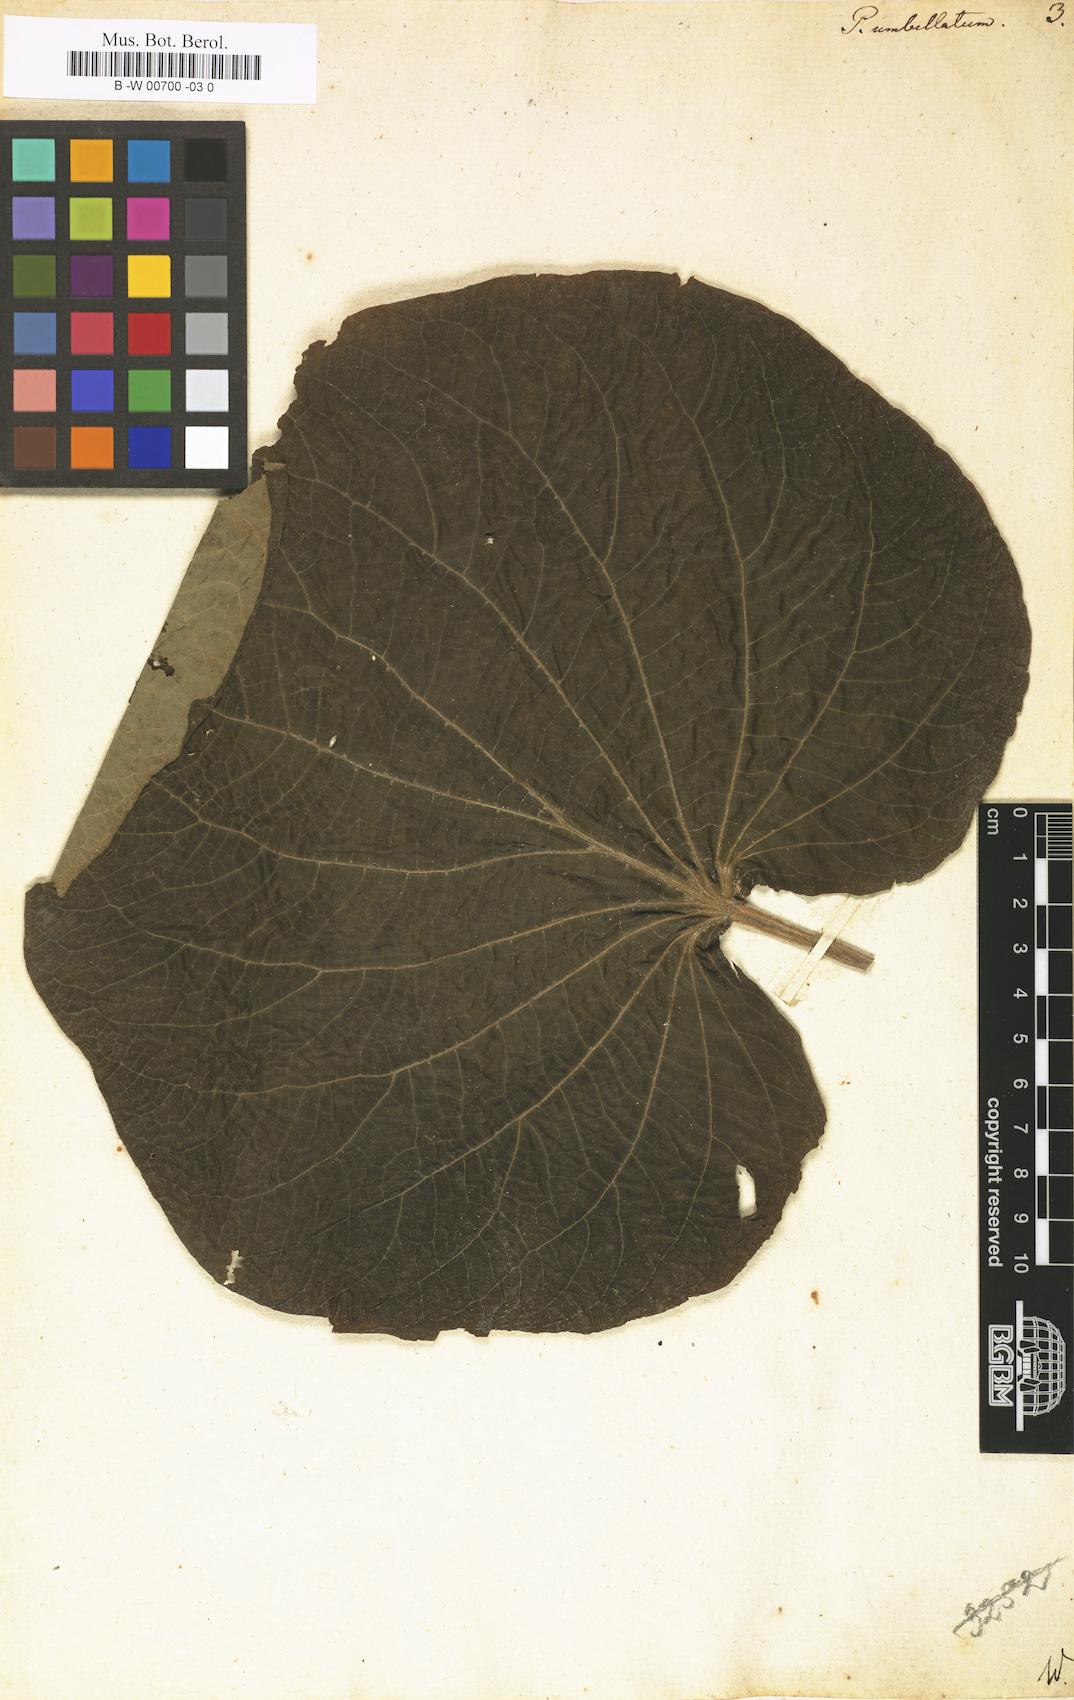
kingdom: Plantae
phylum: Tracheophyta
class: Magnoliopsida
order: Piperales
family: Piperaceae
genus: Piper
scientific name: Piper umbellatum
